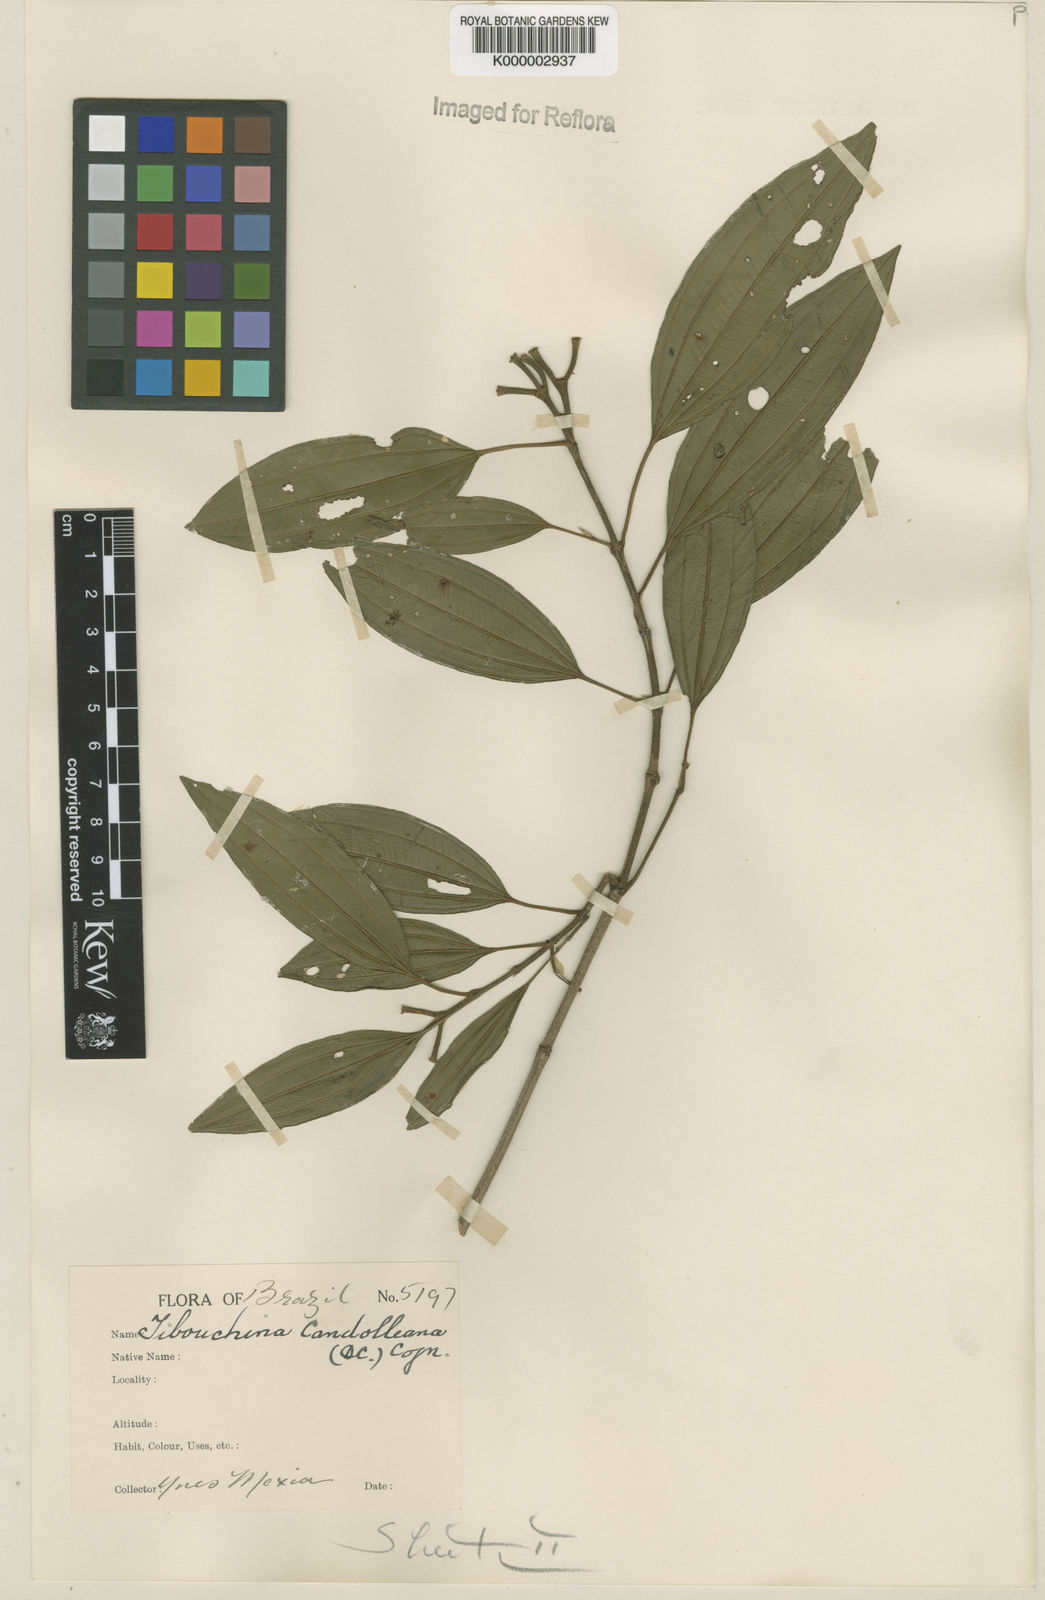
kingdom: Plantae
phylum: Tracheophyta
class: Magnoliopsida
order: Myrtales
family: Melastomataceae
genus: Pleroma
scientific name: Pleroma candolleanum
